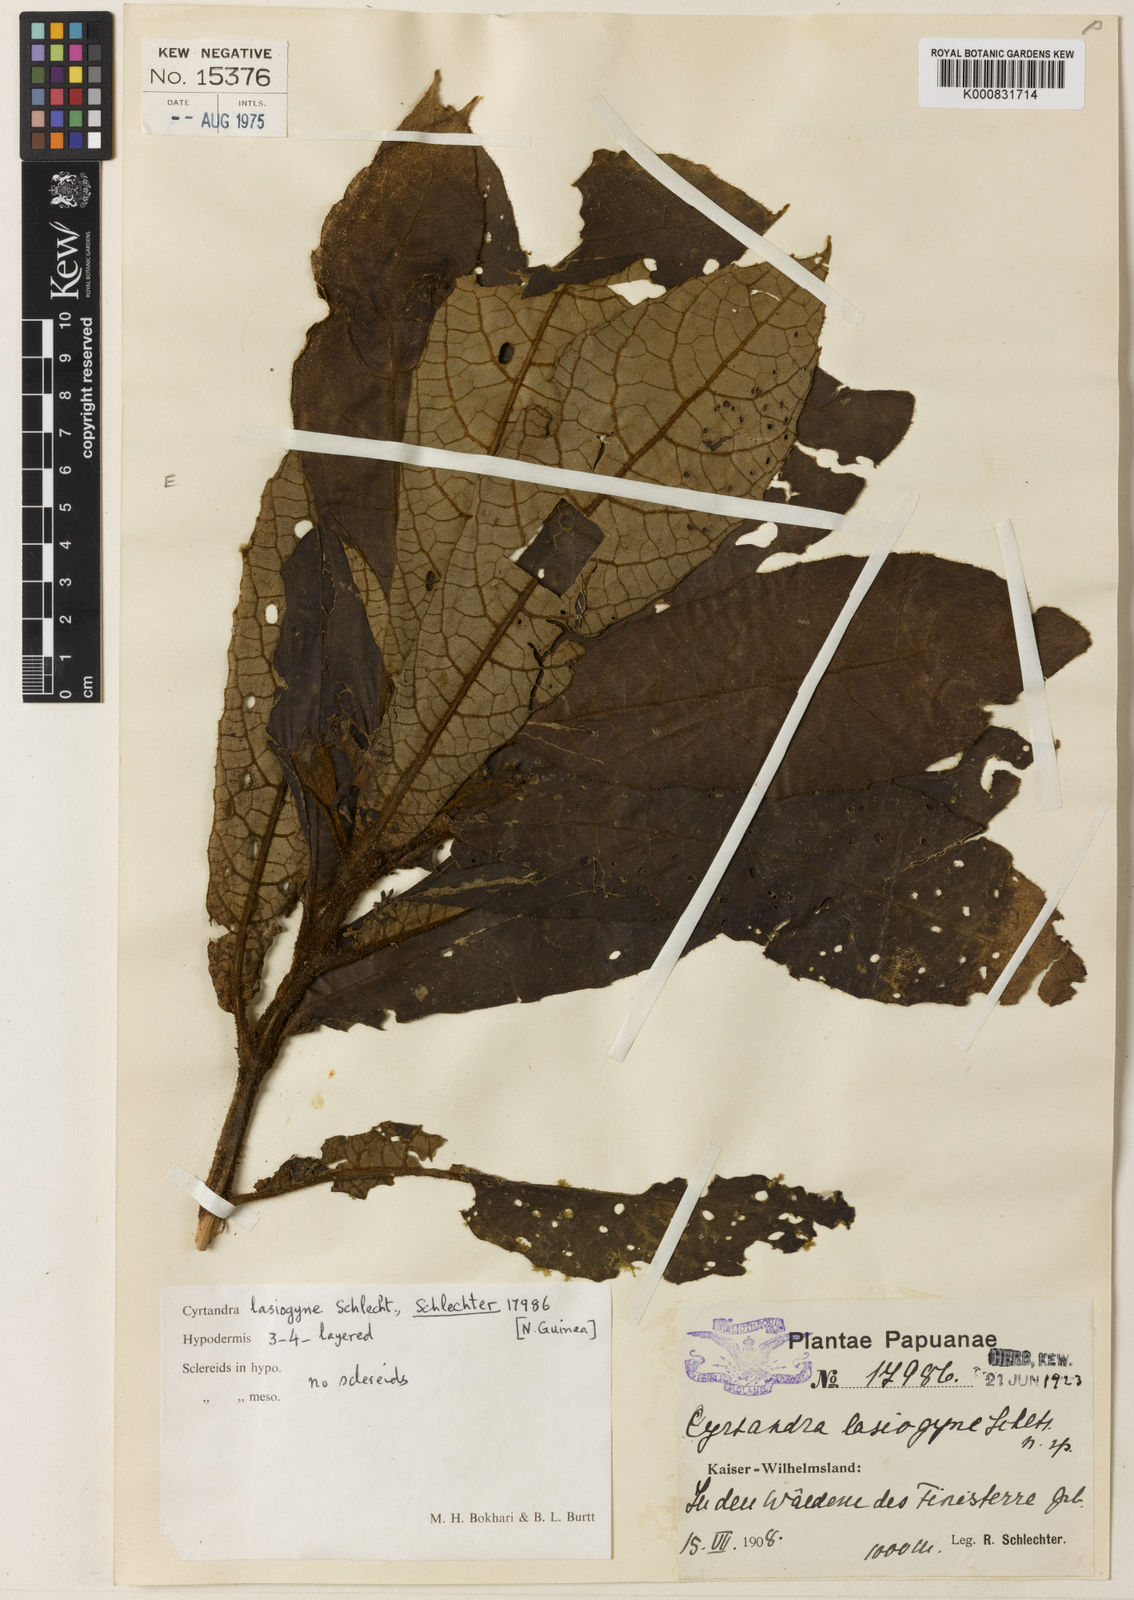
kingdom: Plantae
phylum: Tracheophyta
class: Magnoliopsida
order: Lamiales
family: Gesneriaceae
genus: Cyrtandra
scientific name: Cyrtandra lasiogyne
